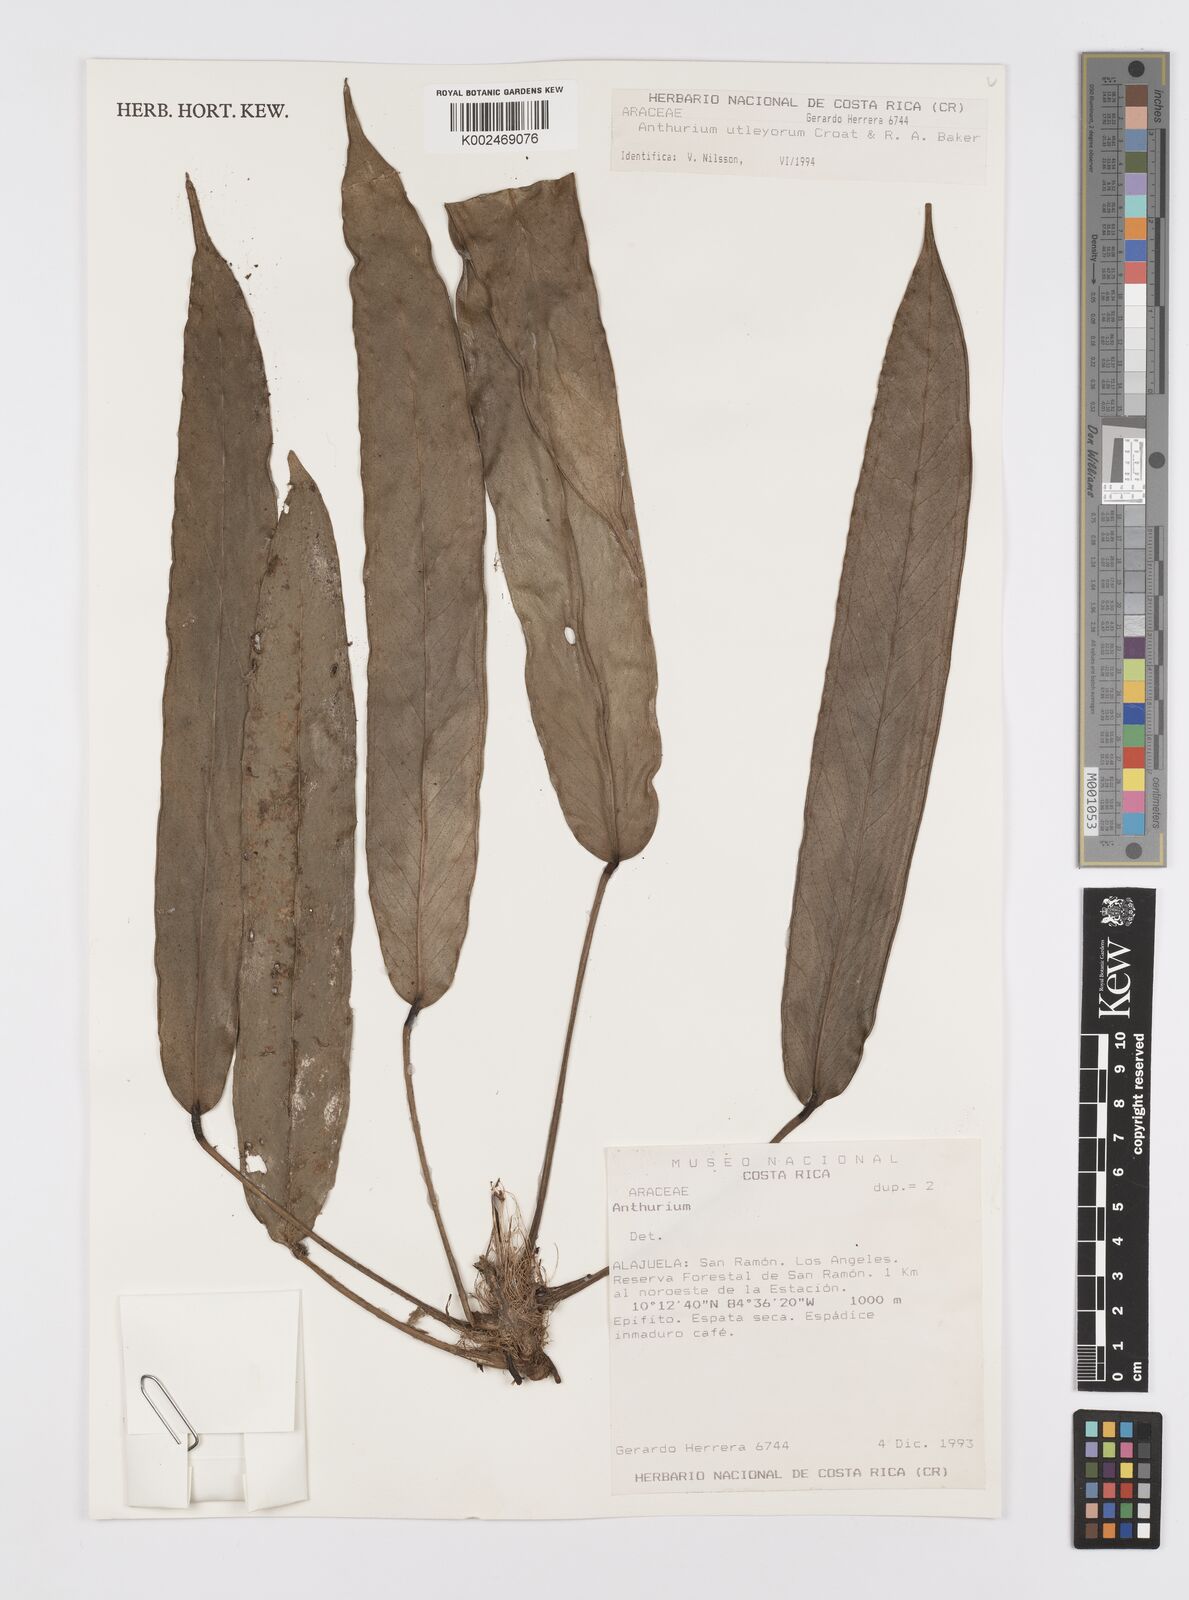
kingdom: Plantae
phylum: Tracheophyta
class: Liliopsida
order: Alismatales
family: Araceae
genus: Anthurium
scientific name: Anthurium utleyorum
